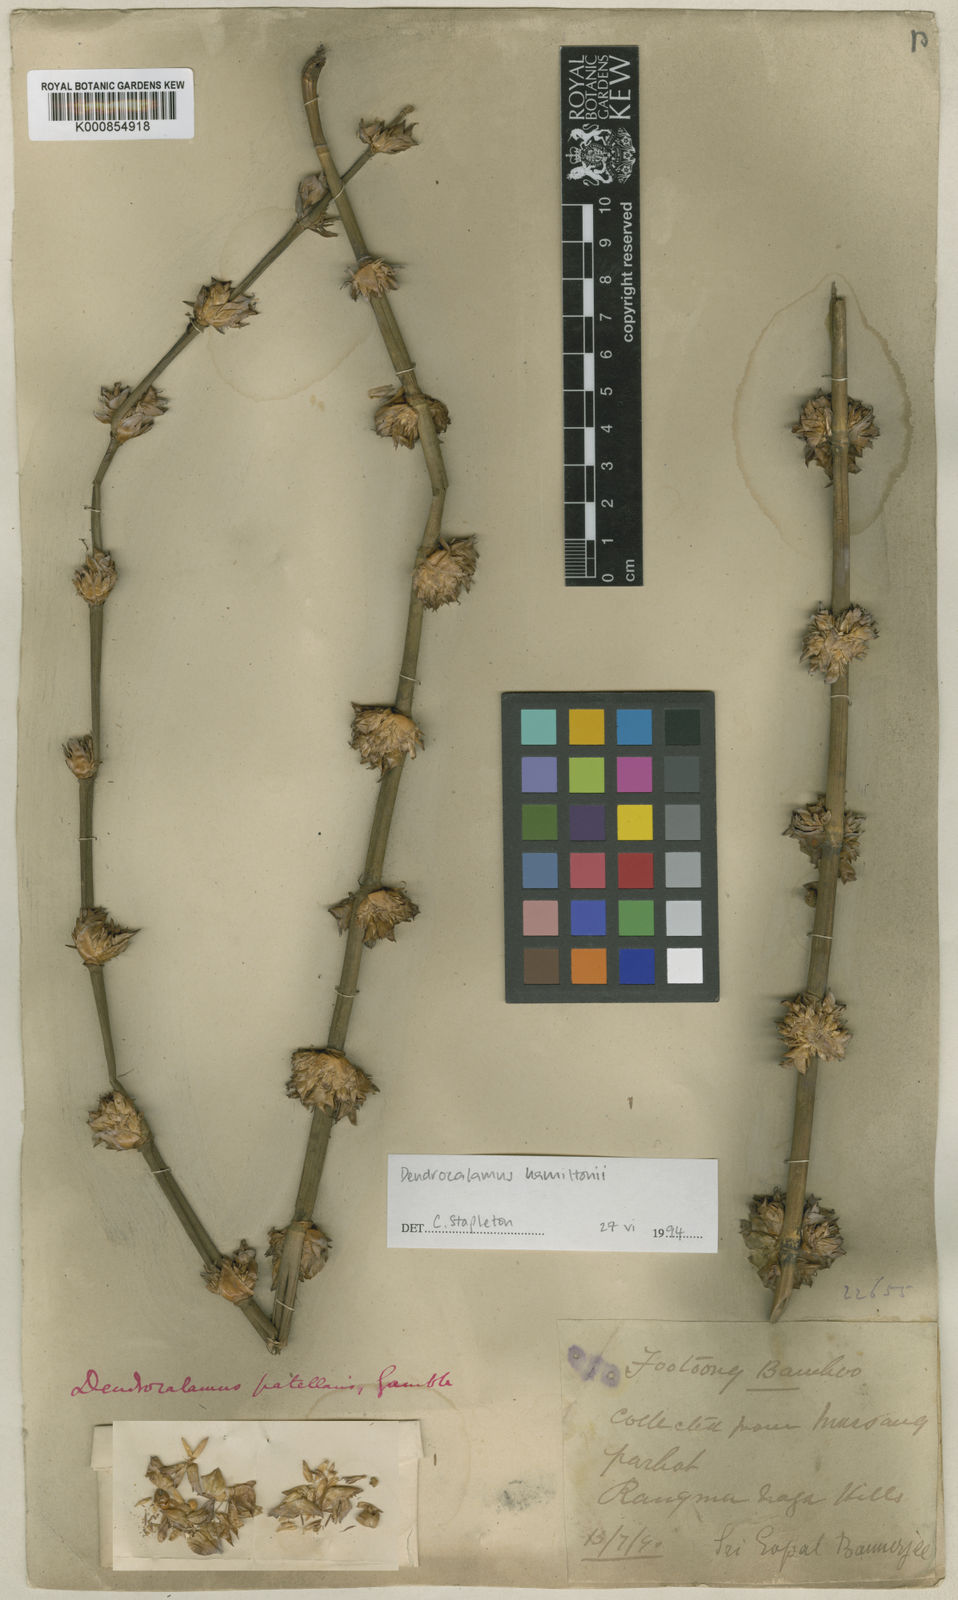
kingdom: Plantae
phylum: Tracheophyta
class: Liliopsida
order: Poales
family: Poaceae
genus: Dendrocalamus
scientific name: Dendrocalamus hamiltonii
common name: Tama bamboo
